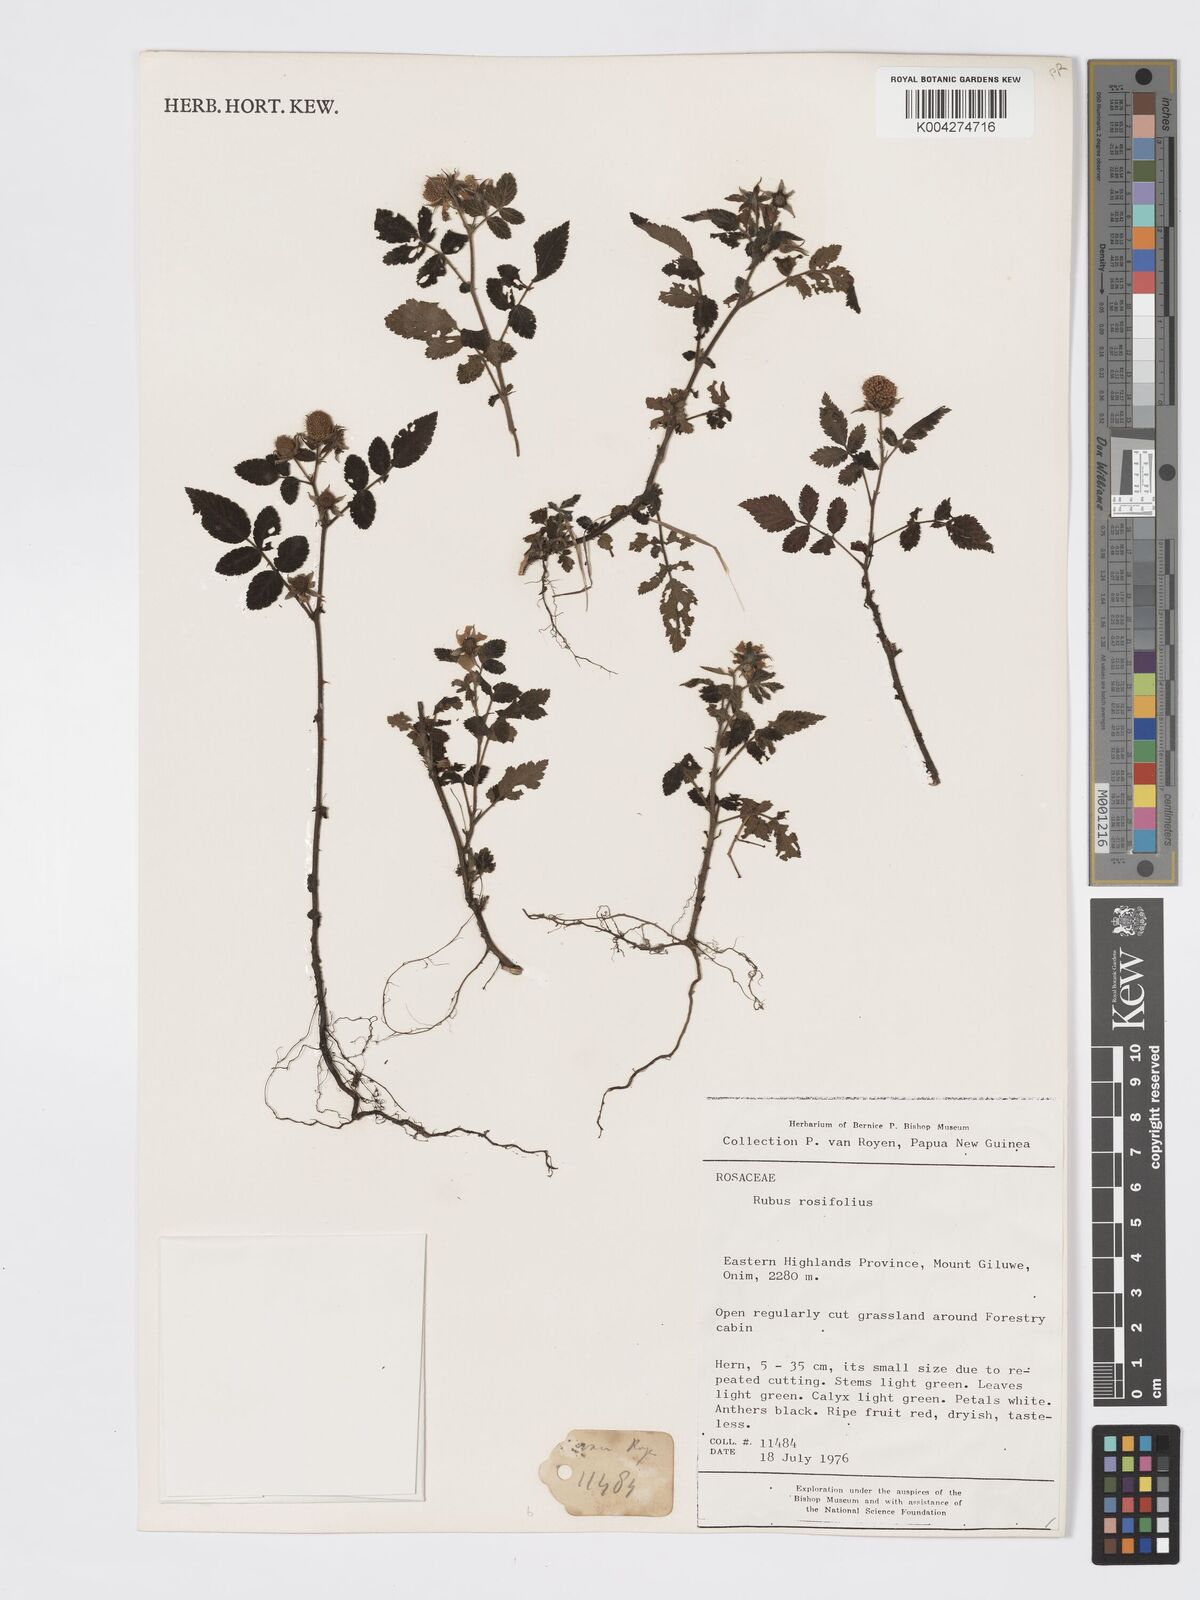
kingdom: Plantae
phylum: Tracheophyta
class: Magnoliopsida
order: Rosales
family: Rosaceae
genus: Rubus
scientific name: Rubus
